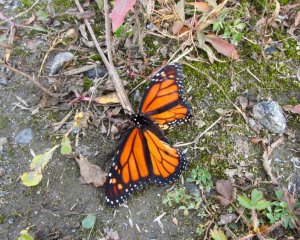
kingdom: Animalia
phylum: Arthropoda
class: Insecta
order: Lepidoptera
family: Nymphalidae
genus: Danaus
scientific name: Danaus plexippus
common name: Monarch
